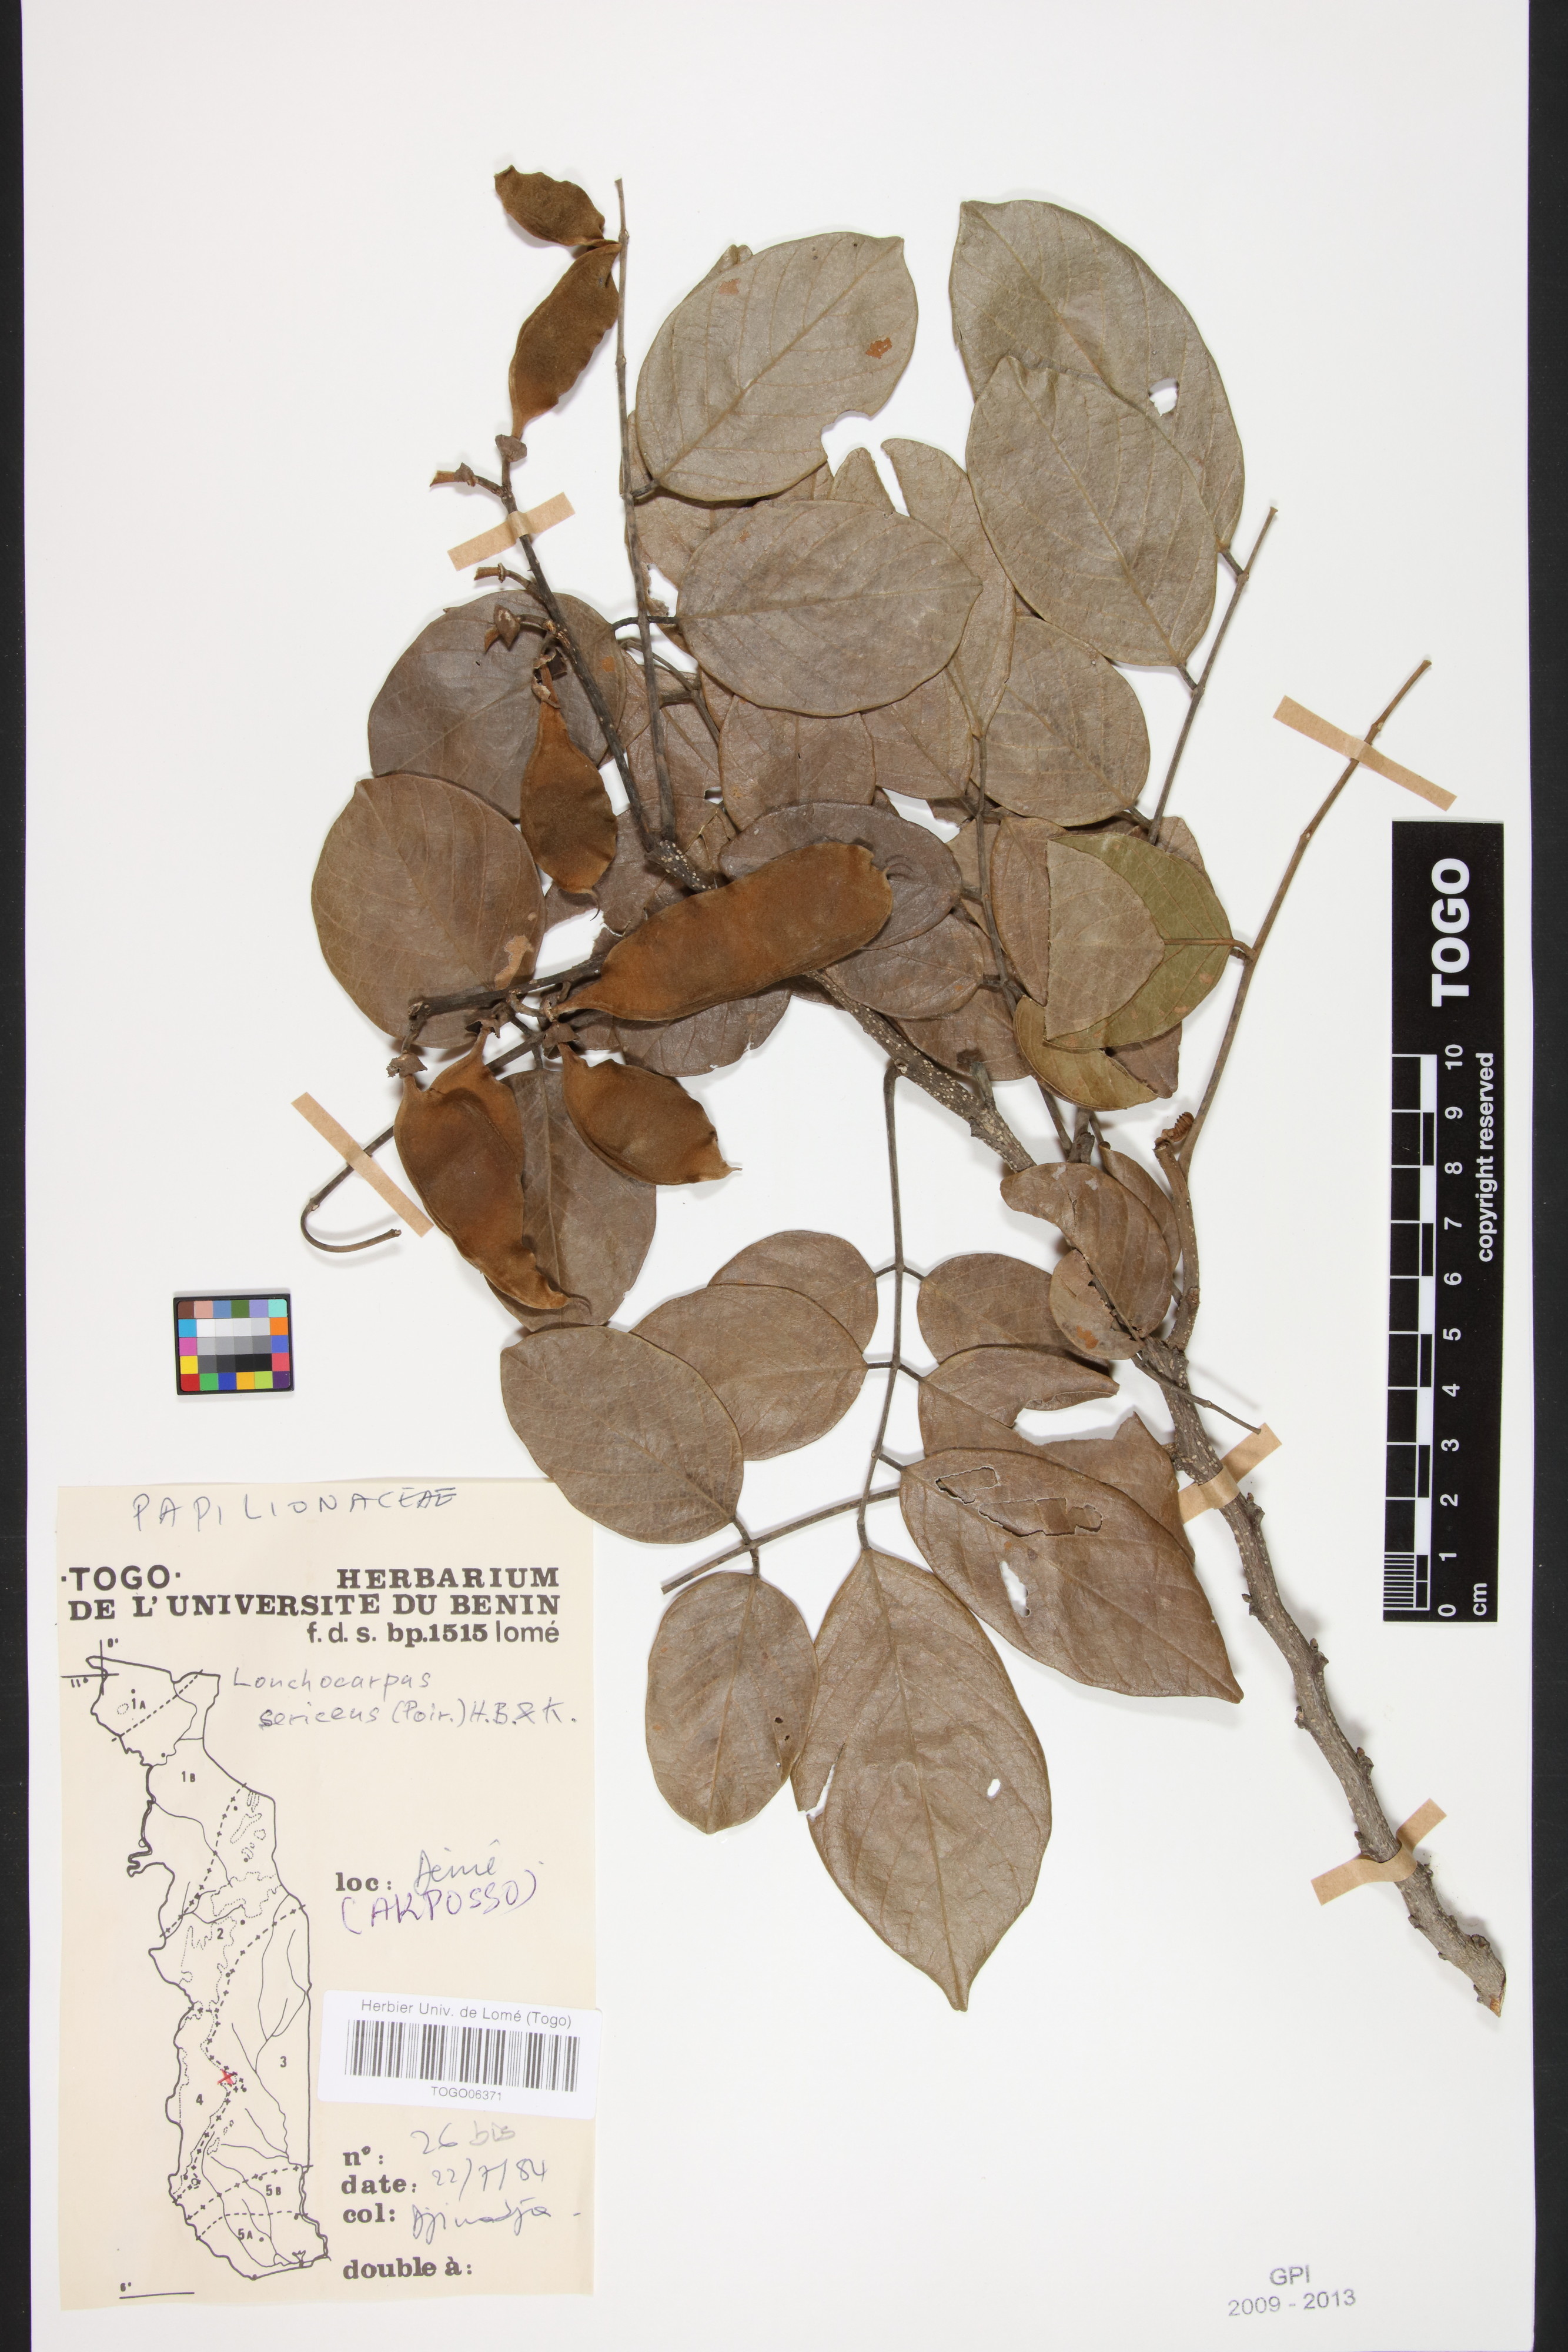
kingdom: Plantae
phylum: Tracheophyta
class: Magnoliopsida
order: Fabales
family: Fabaceae
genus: Lonchocarpus
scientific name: Lonchocarpus sericeus
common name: Savonette
